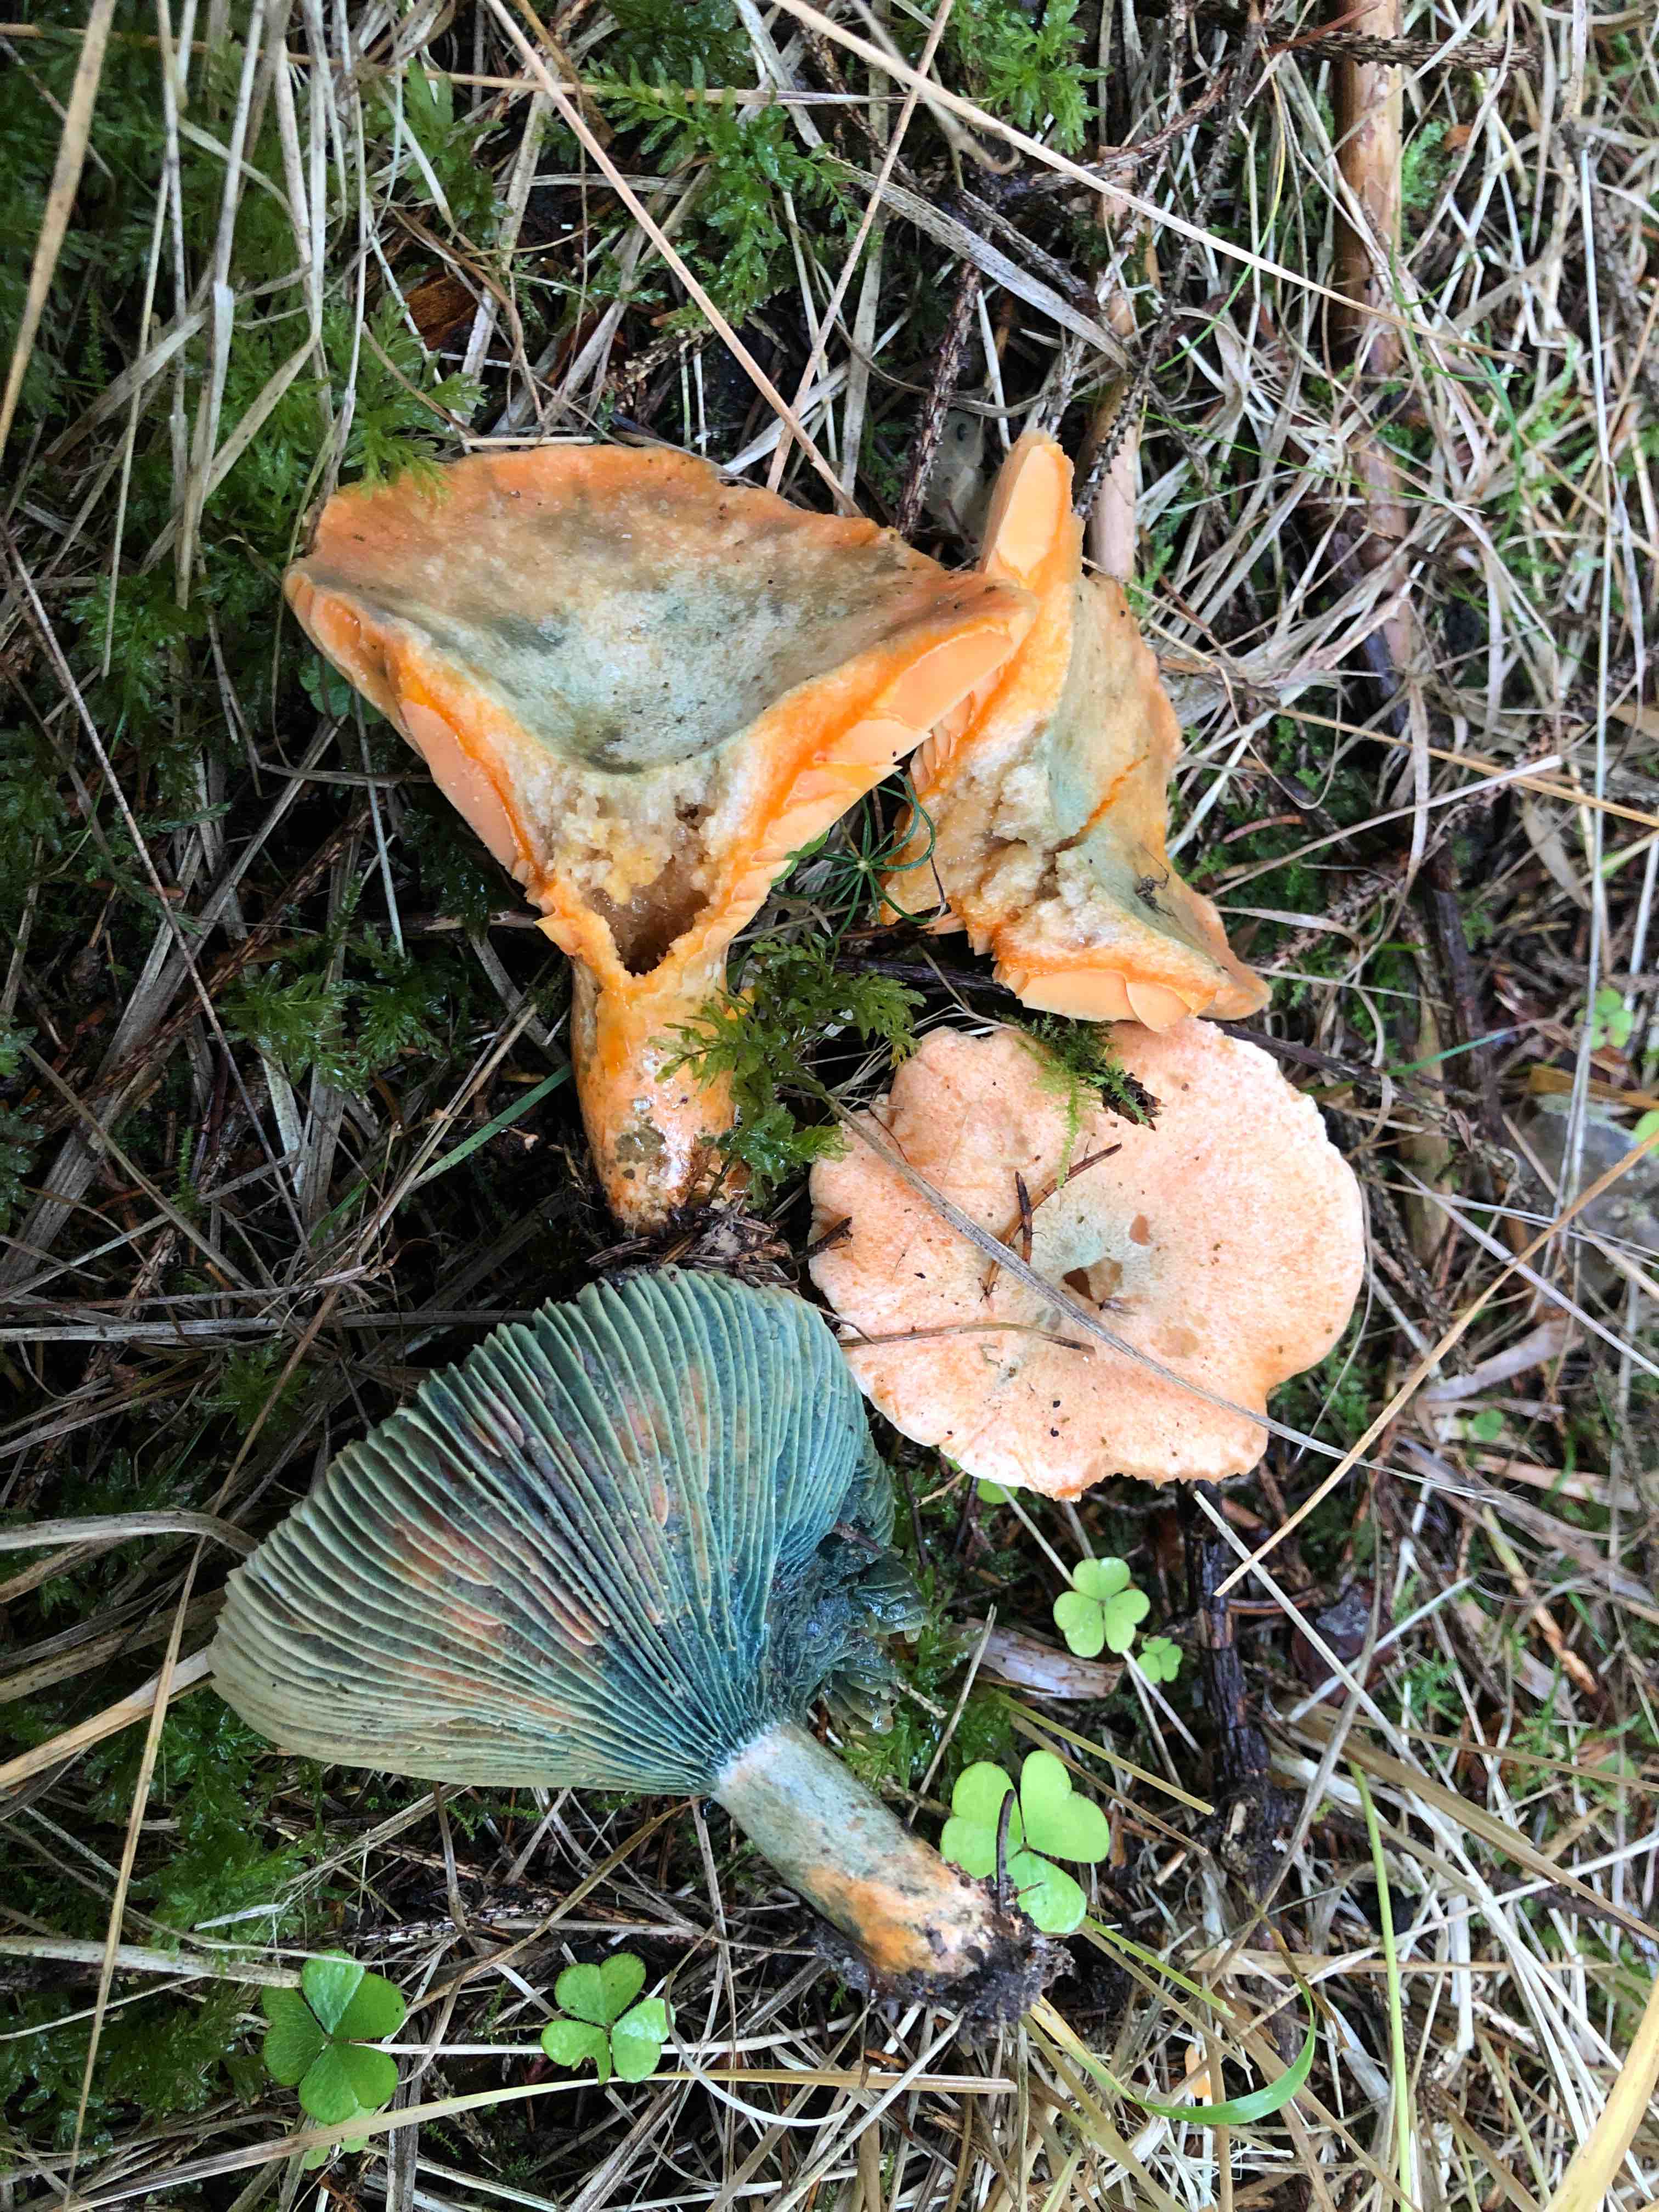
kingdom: Fungi
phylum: Basidiomycota
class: Agaricomycetes
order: Russulales
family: Russulaceae
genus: Lactarius
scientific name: Lactarius deterrimus
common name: gran-mælkehat
